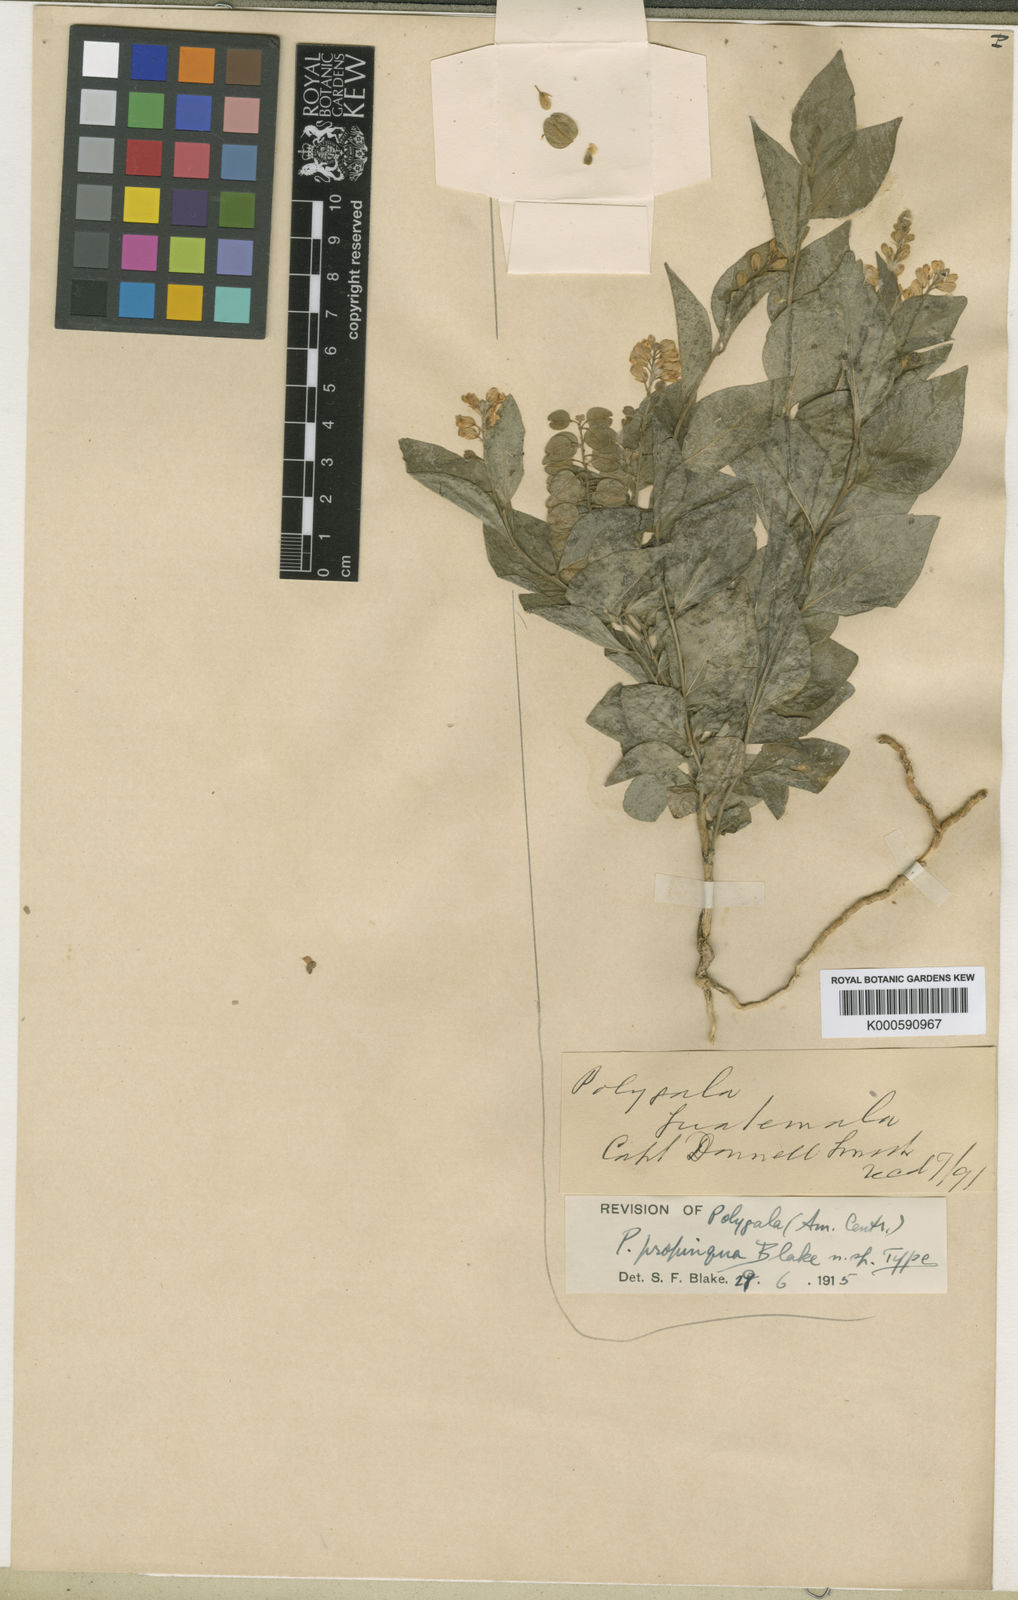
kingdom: Plantae
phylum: Tracheophyta
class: Magnoliopsida
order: Fabales
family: Polygalaceae
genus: Polygala
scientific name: Polygala
